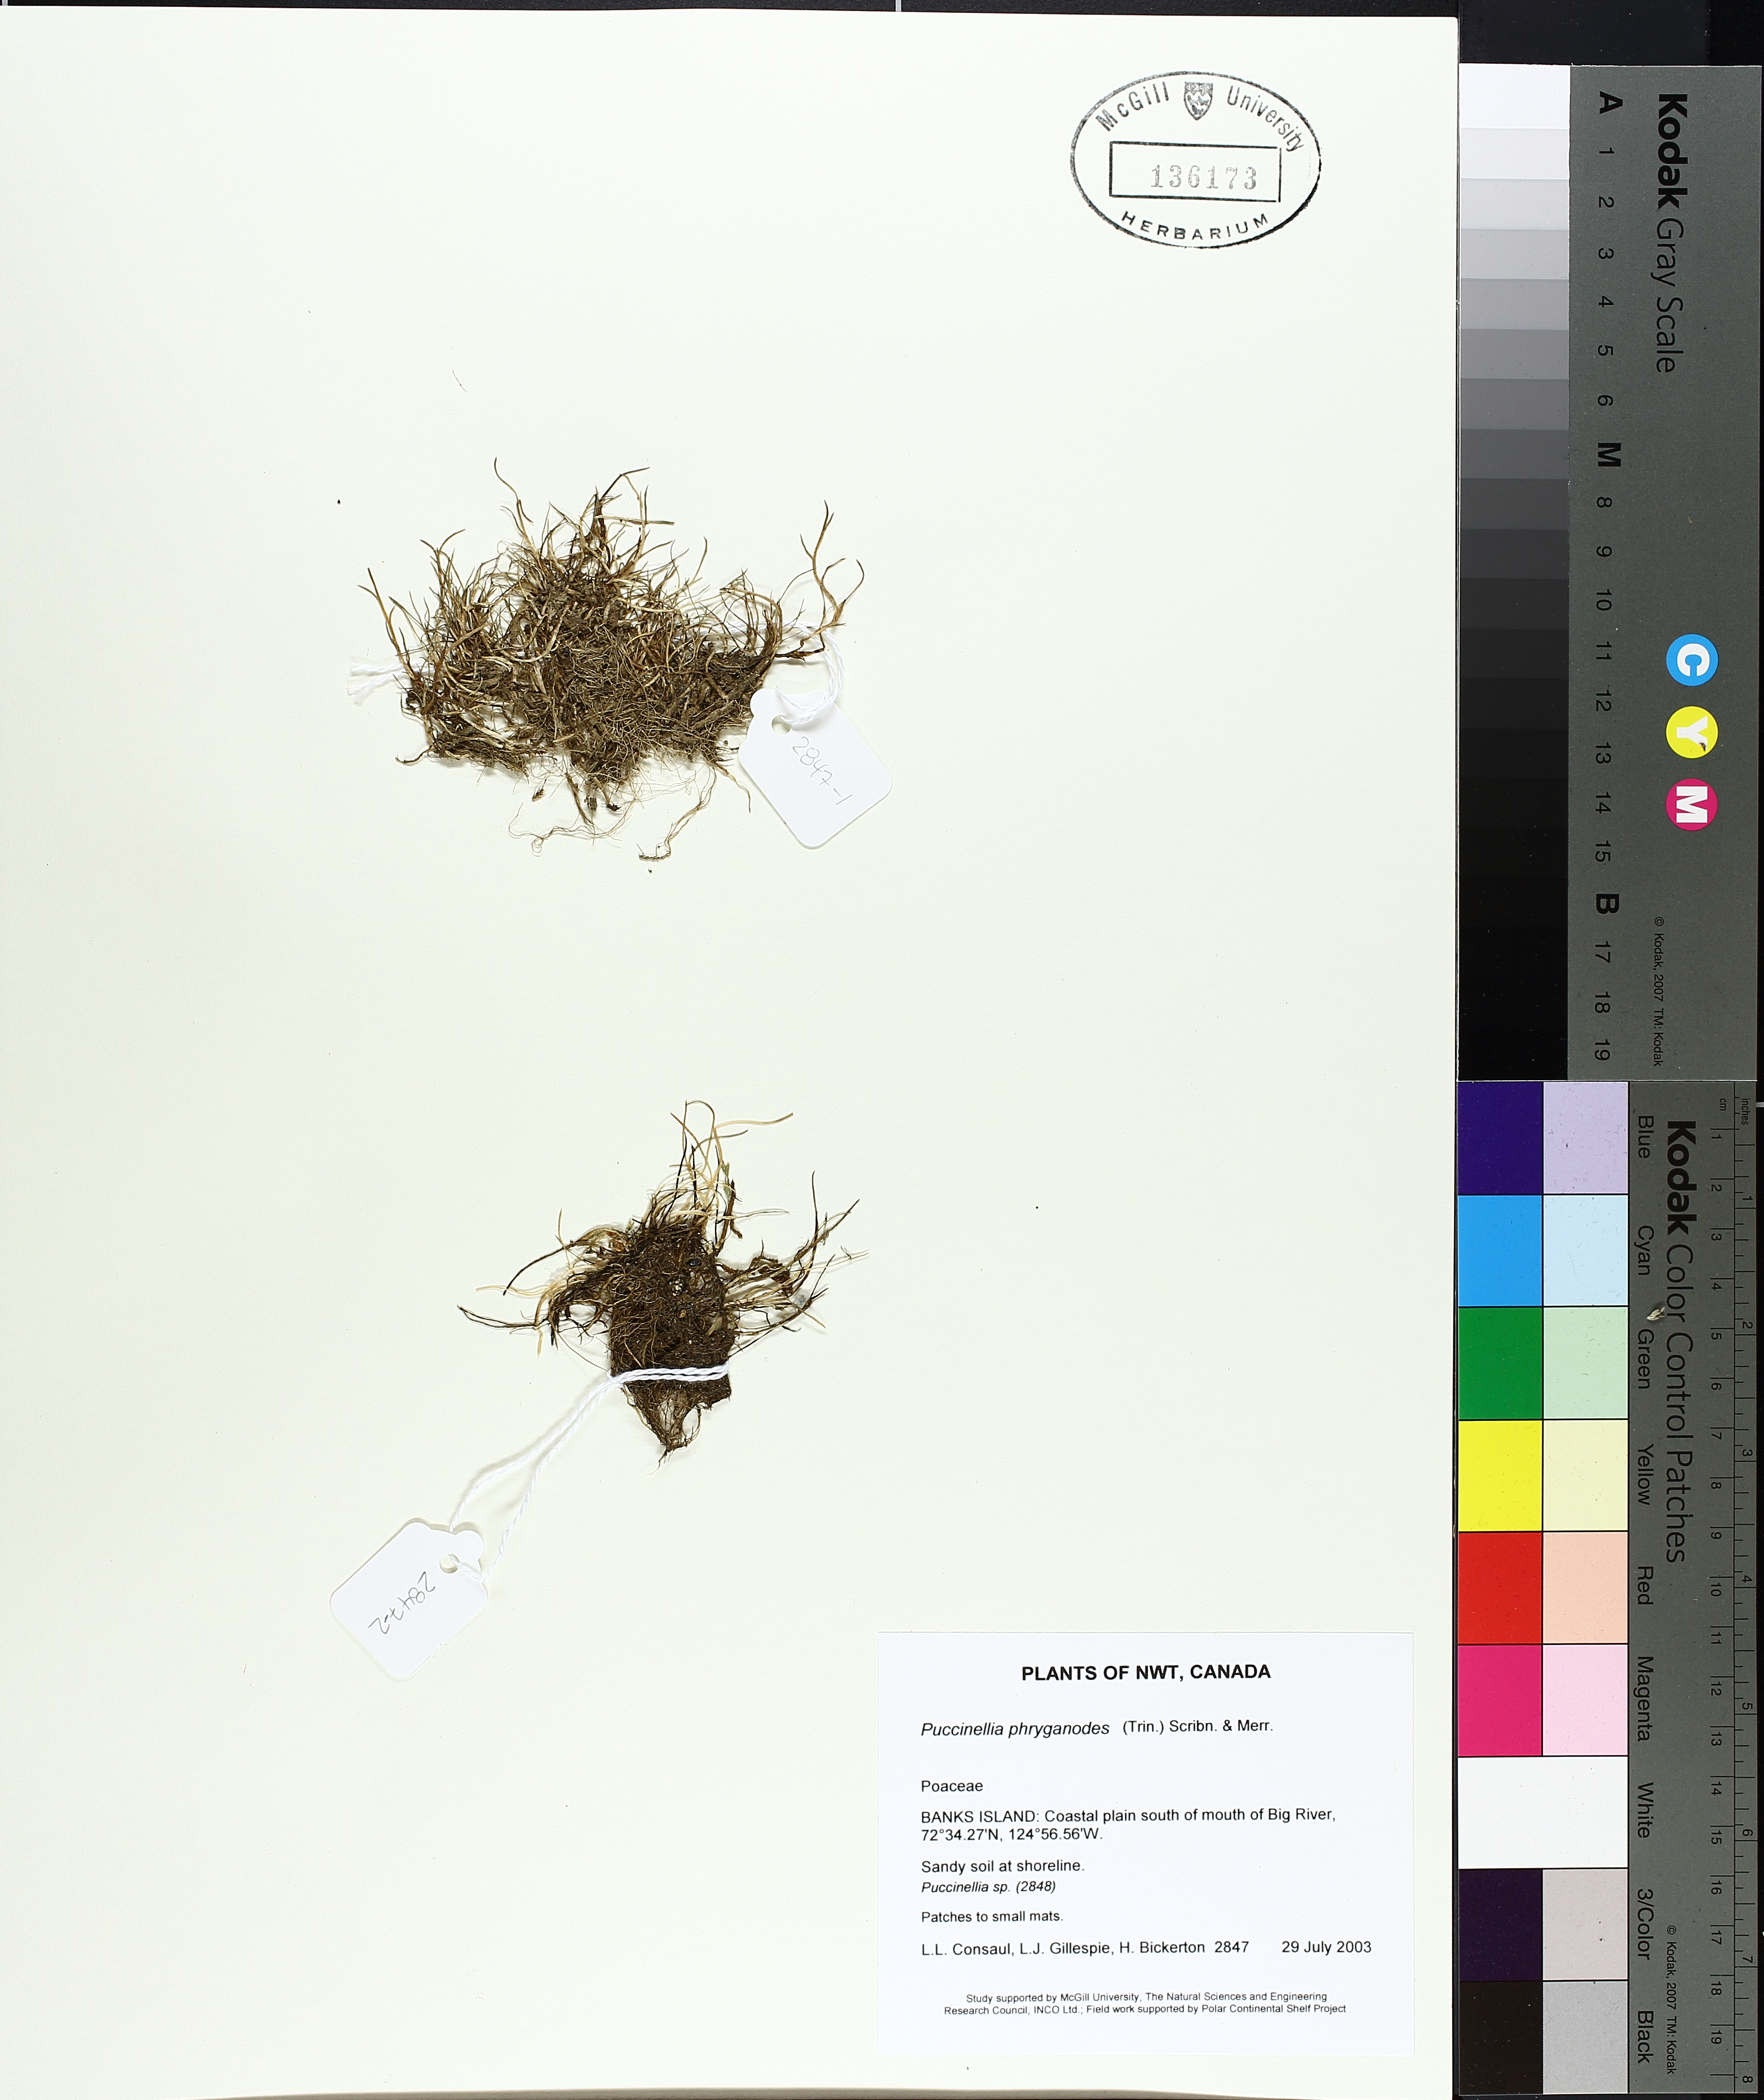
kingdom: Plantae
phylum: Tracheophyta
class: Liliopsida
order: Poales
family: Poaceae
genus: Puccinellia
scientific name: Puccinellia phryganodes
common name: Creeping alkaligrass
